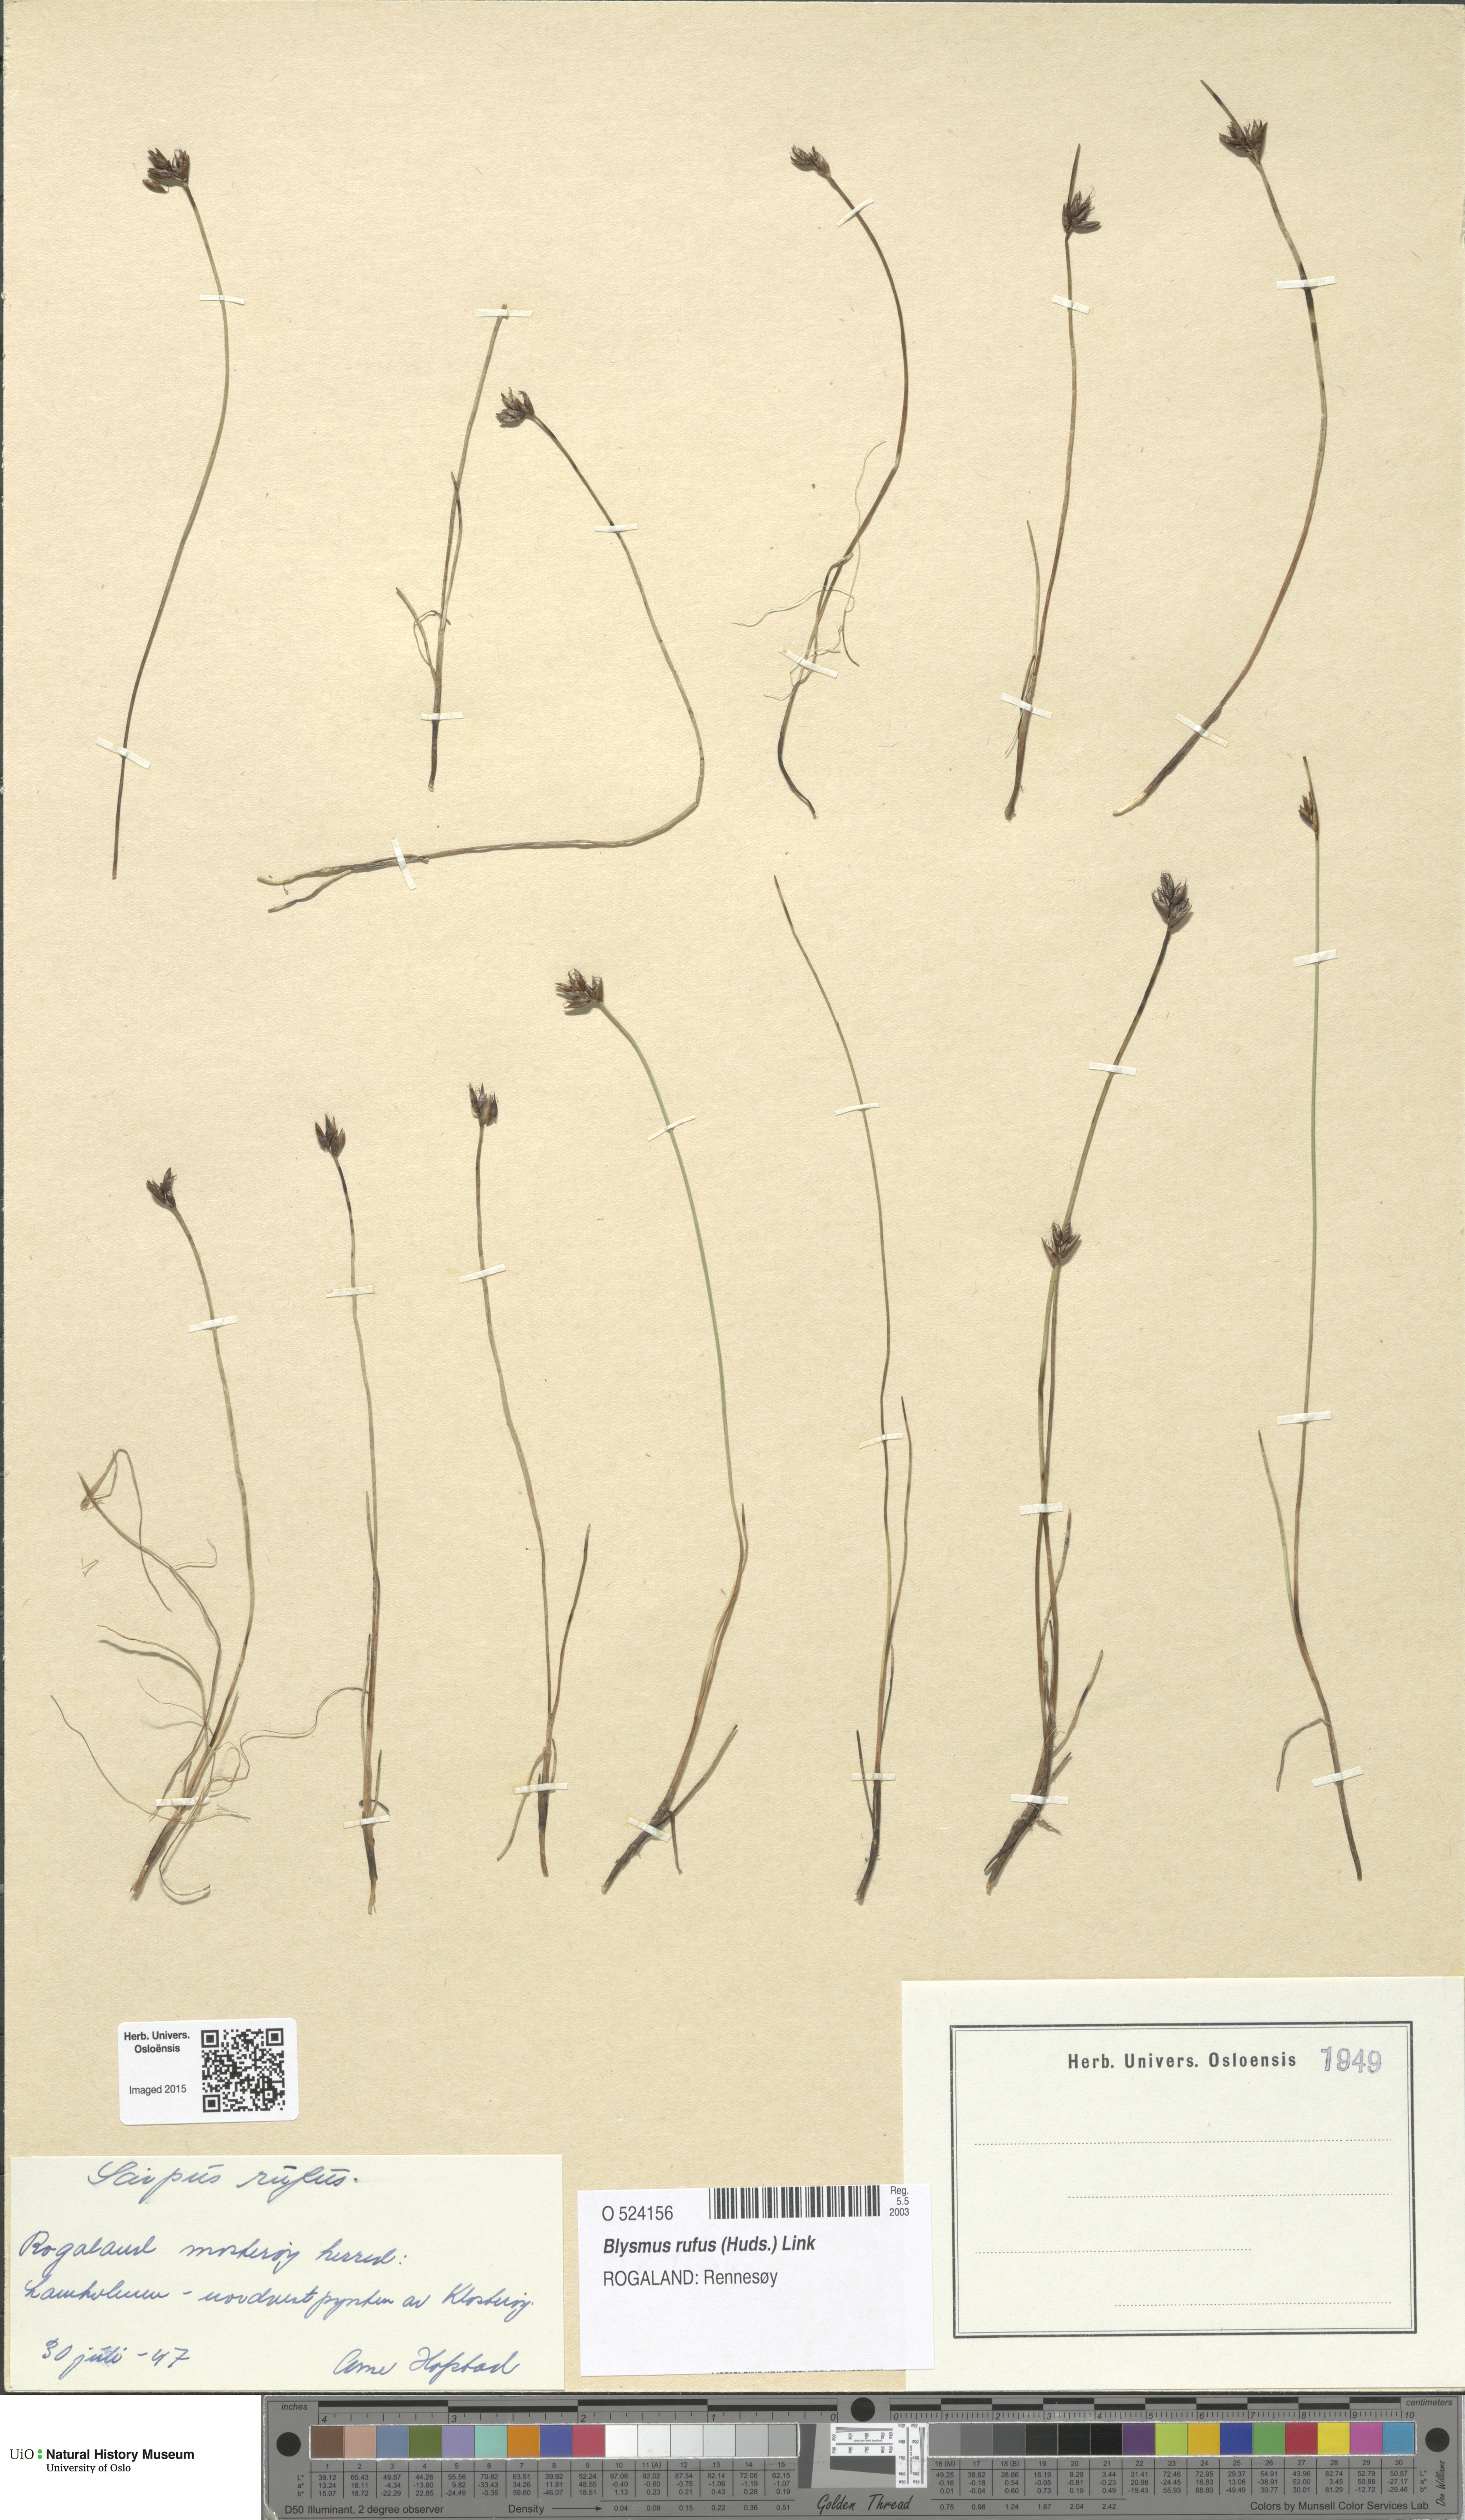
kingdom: Plantae
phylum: Tracheophyta
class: Liliopsida
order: Poales
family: Cyperaceae
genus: Blysmus
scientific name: Blysmus rufus
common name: Saltmarsh flat-sedge
